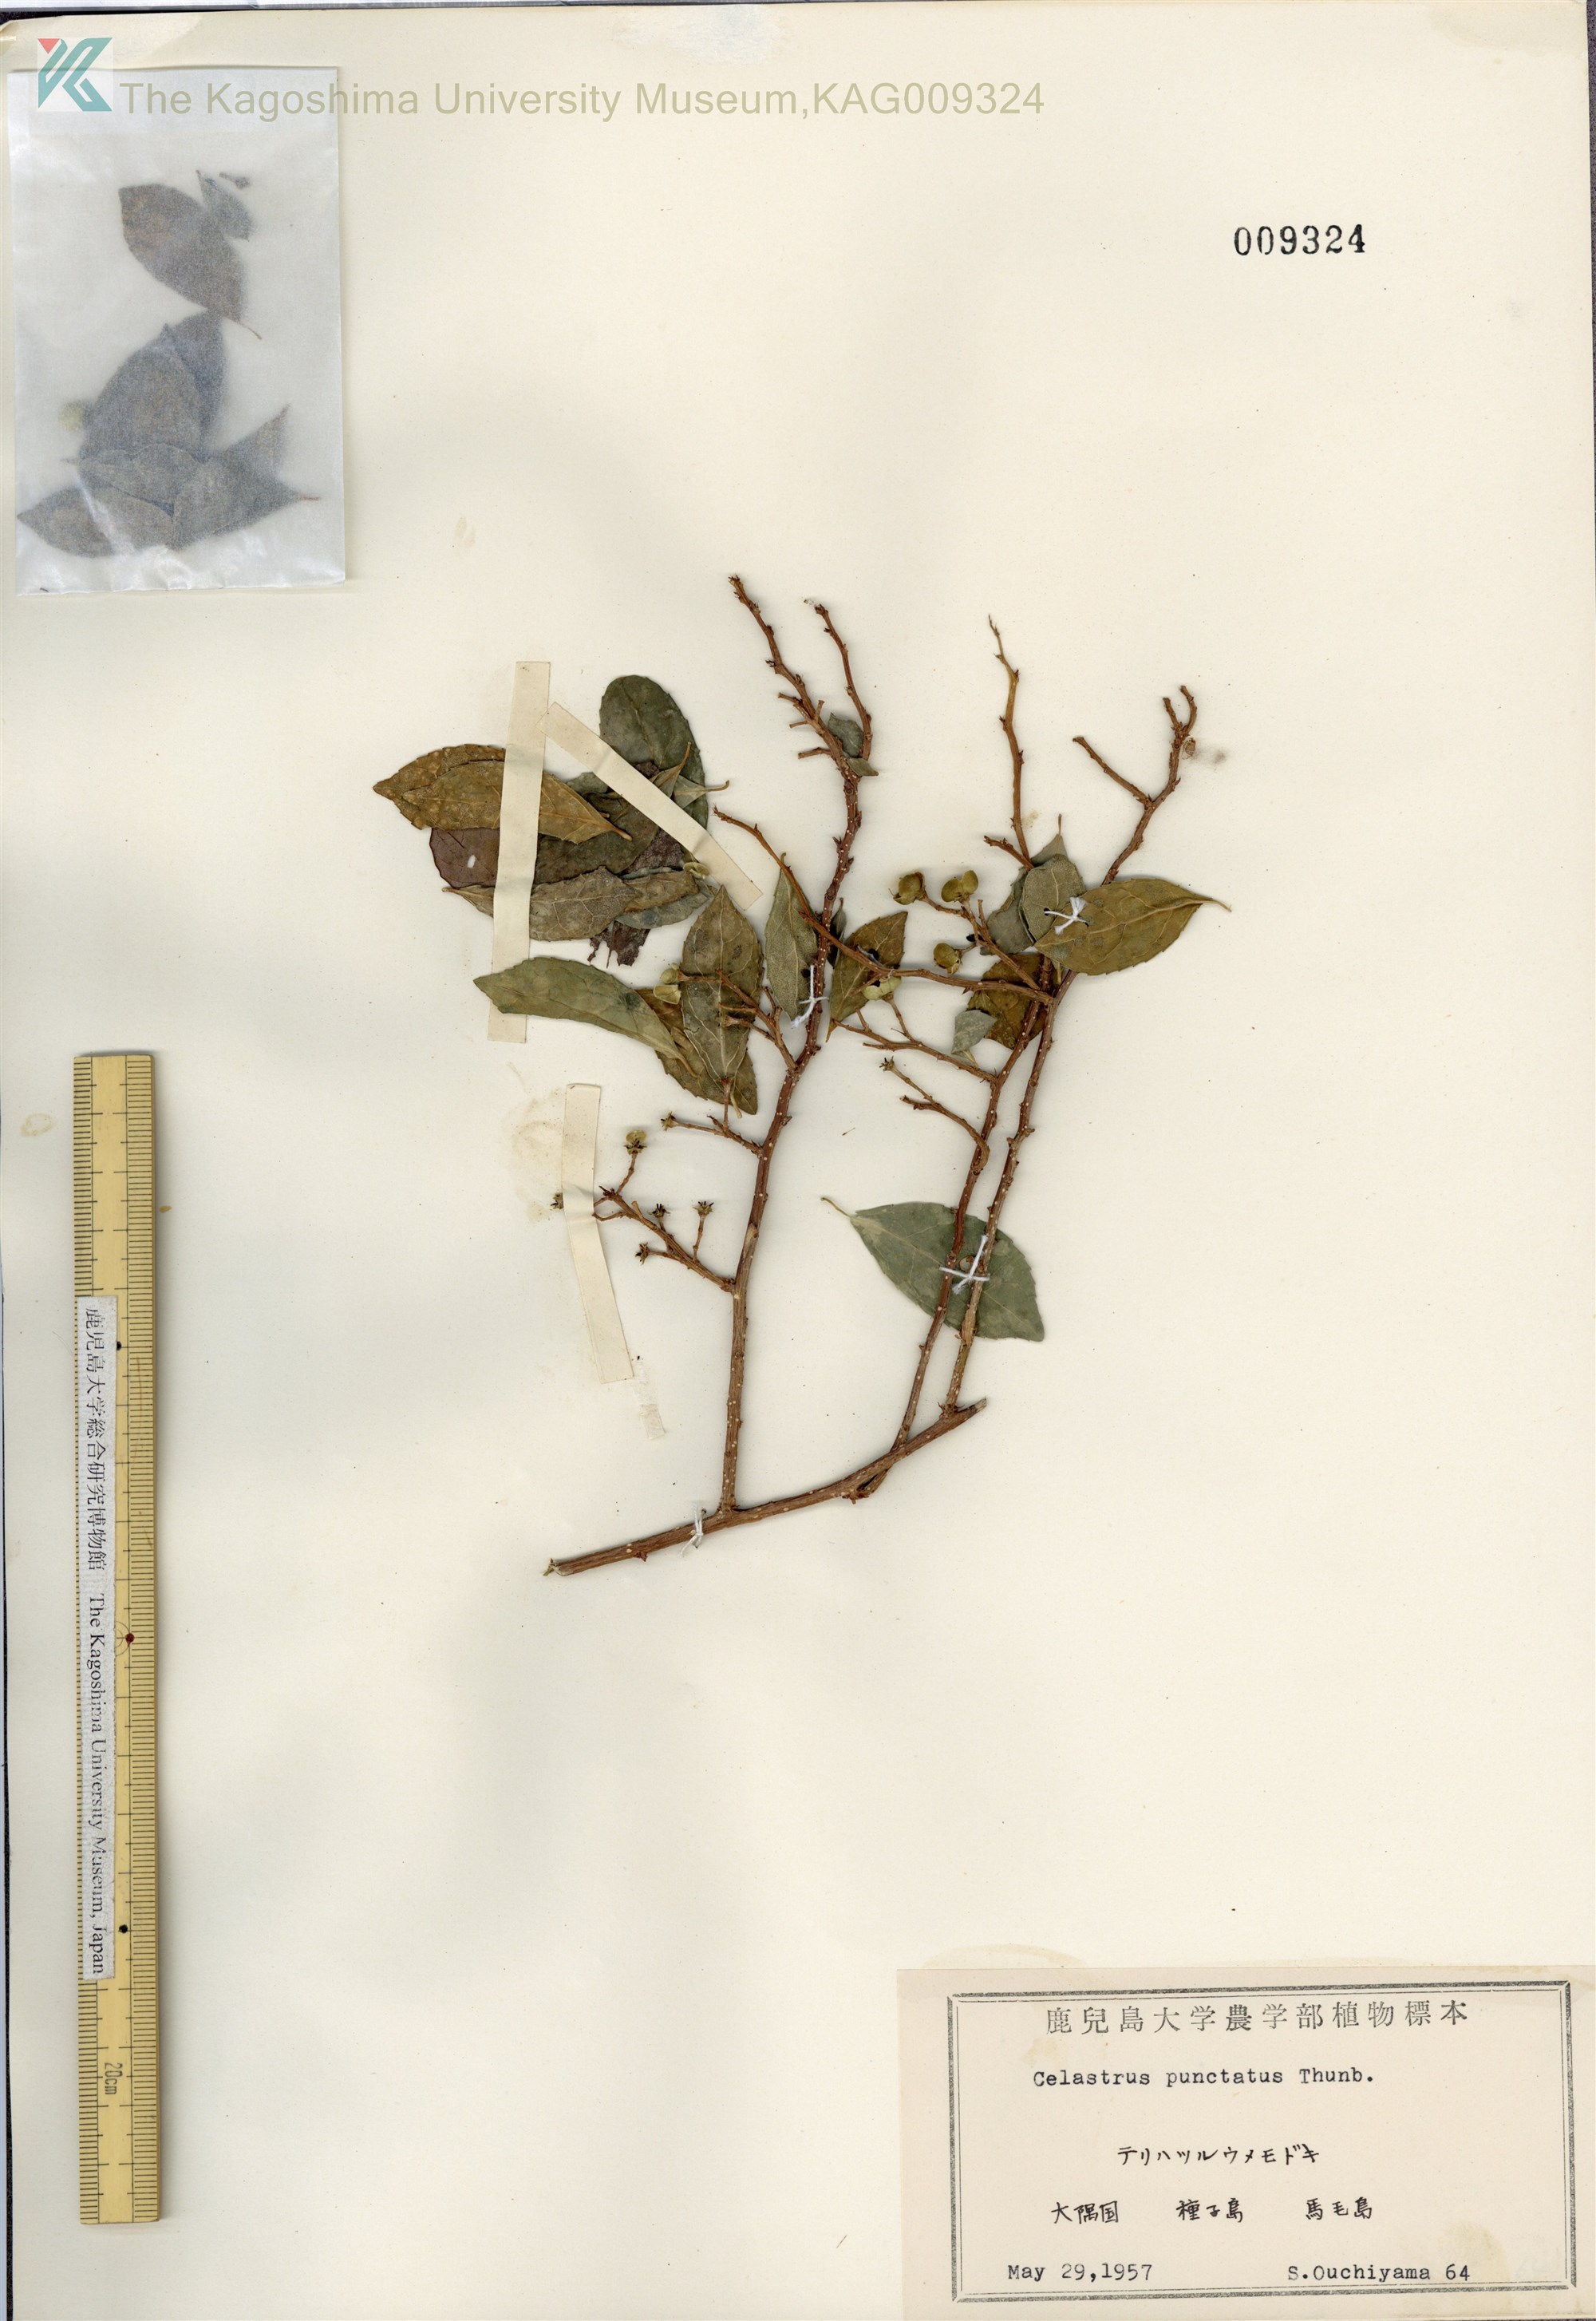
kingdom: Plantae
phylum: Tracheophyta
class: Magnoliopsida
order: Celastrales
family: Celastraceae
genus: Celastrus
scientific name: Celastrus punctatus
